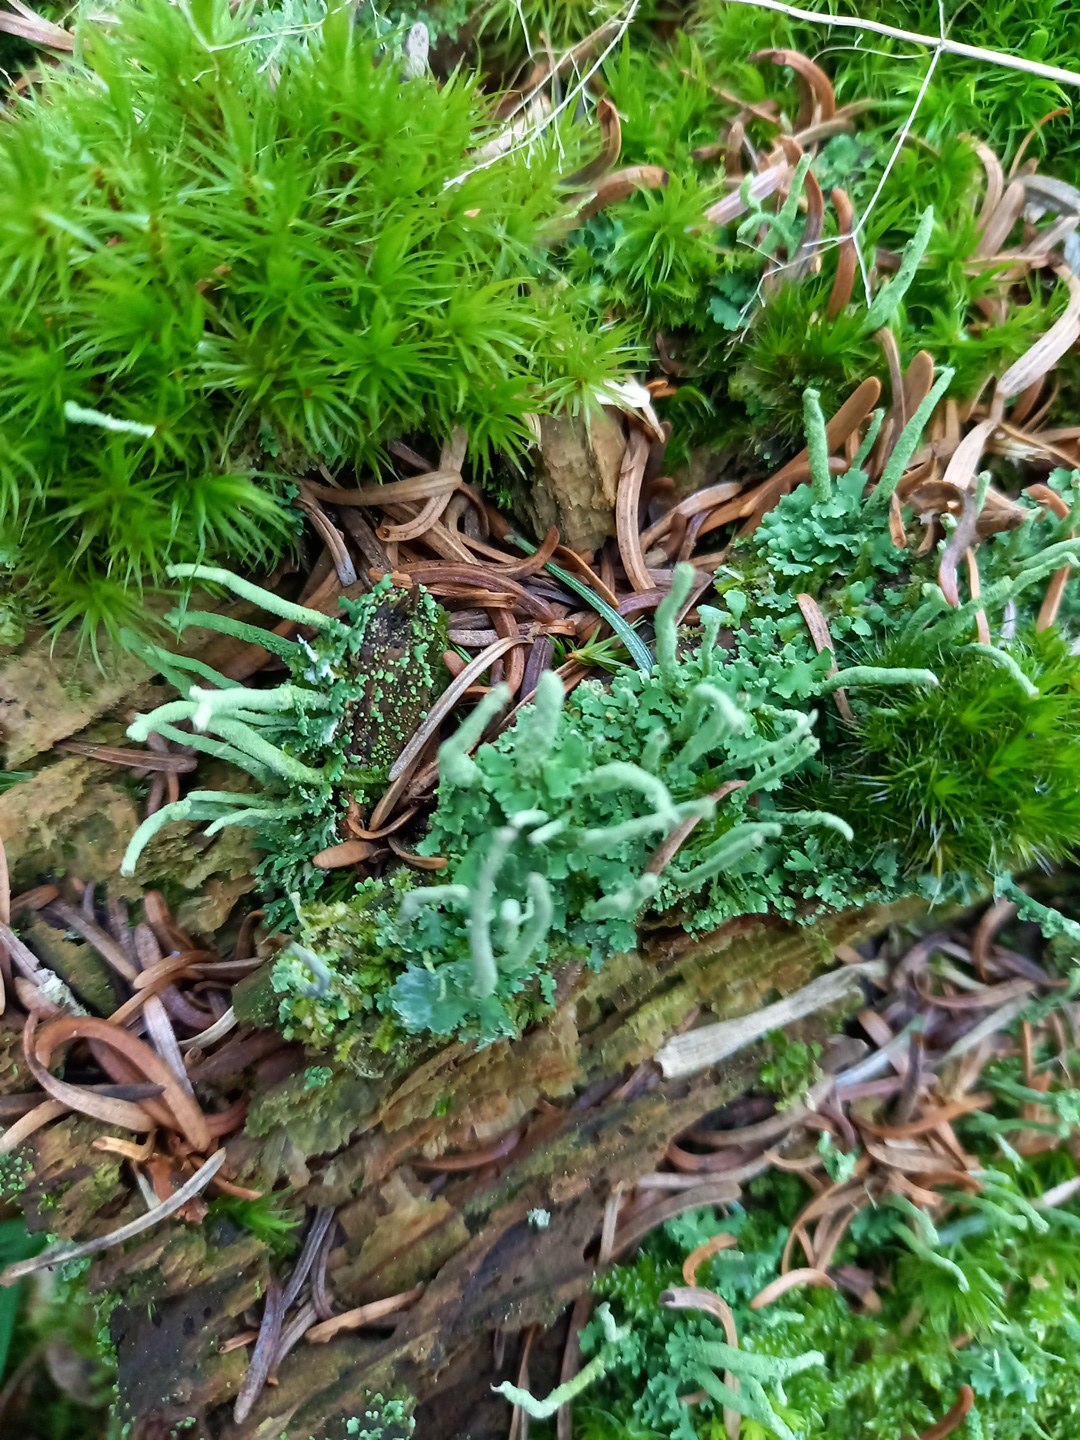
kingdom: Fungi
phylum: Ascomycota
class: Lecanoromycetes
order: Lecanorales
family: Cladoniaceae
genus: Cladonia
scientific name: Cladonia coniocraea
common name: træfods-bægerlav
